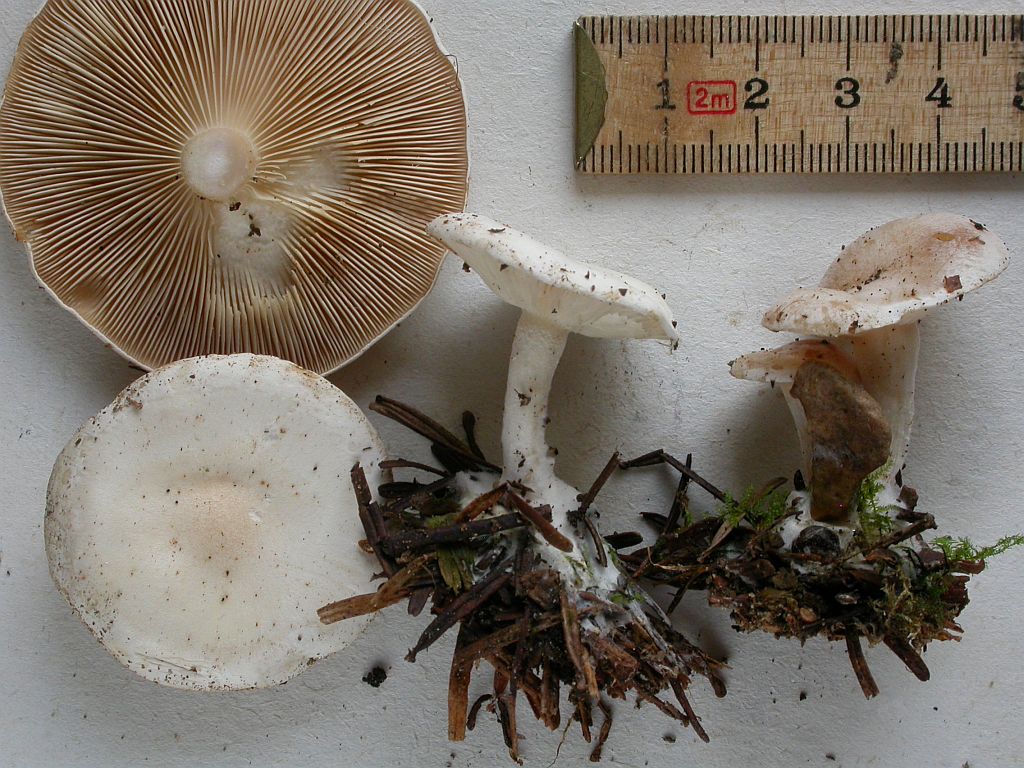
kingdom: Fungi
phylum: Basidiomycota
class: Agaricomycetes
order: Agaricales
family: Tricholomataceae
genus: Clitocybe
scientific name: Clitocybe phyllophila
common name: løv-tragthat
